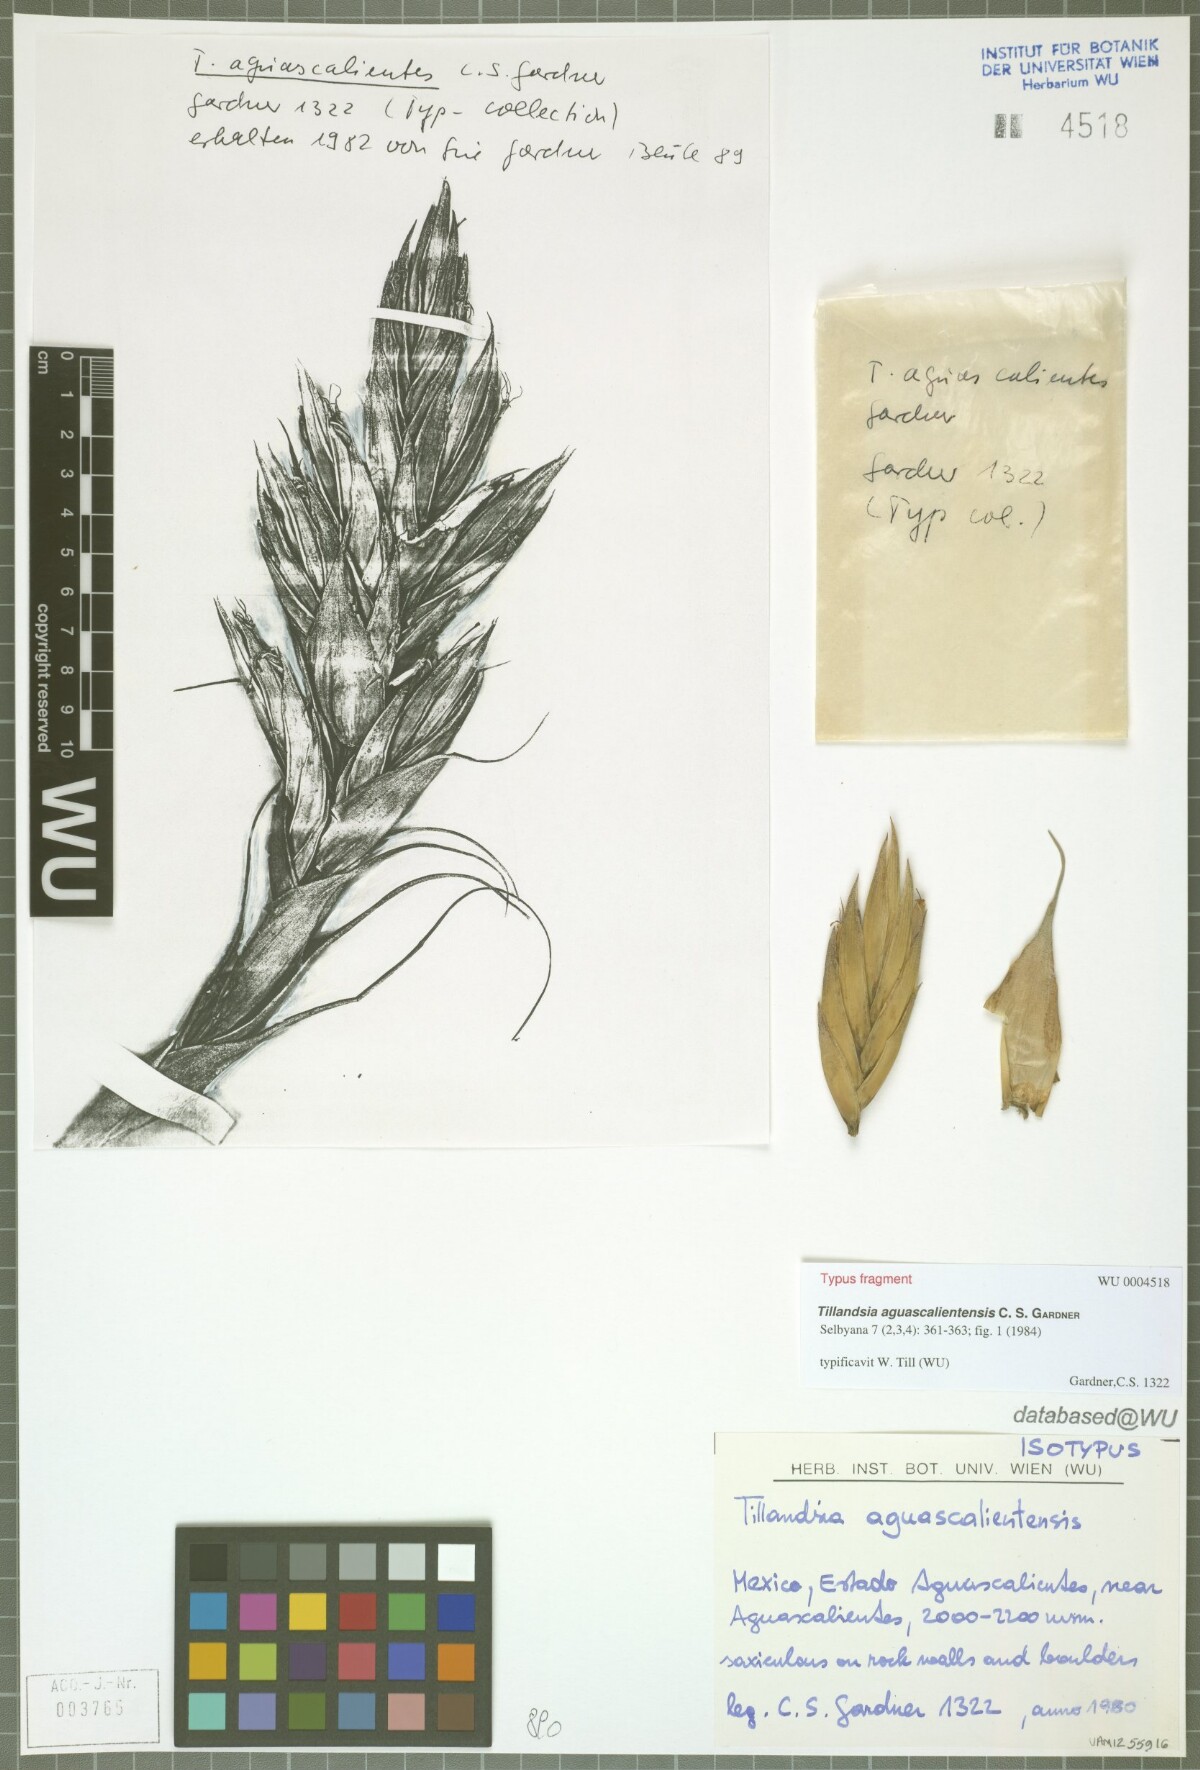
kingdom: Plantae
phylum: Tracheophyta
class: Liliopsida
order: Poales
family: Bromeliaceae
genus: Tillandsia
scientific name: Tillandsia aguascalientensis
